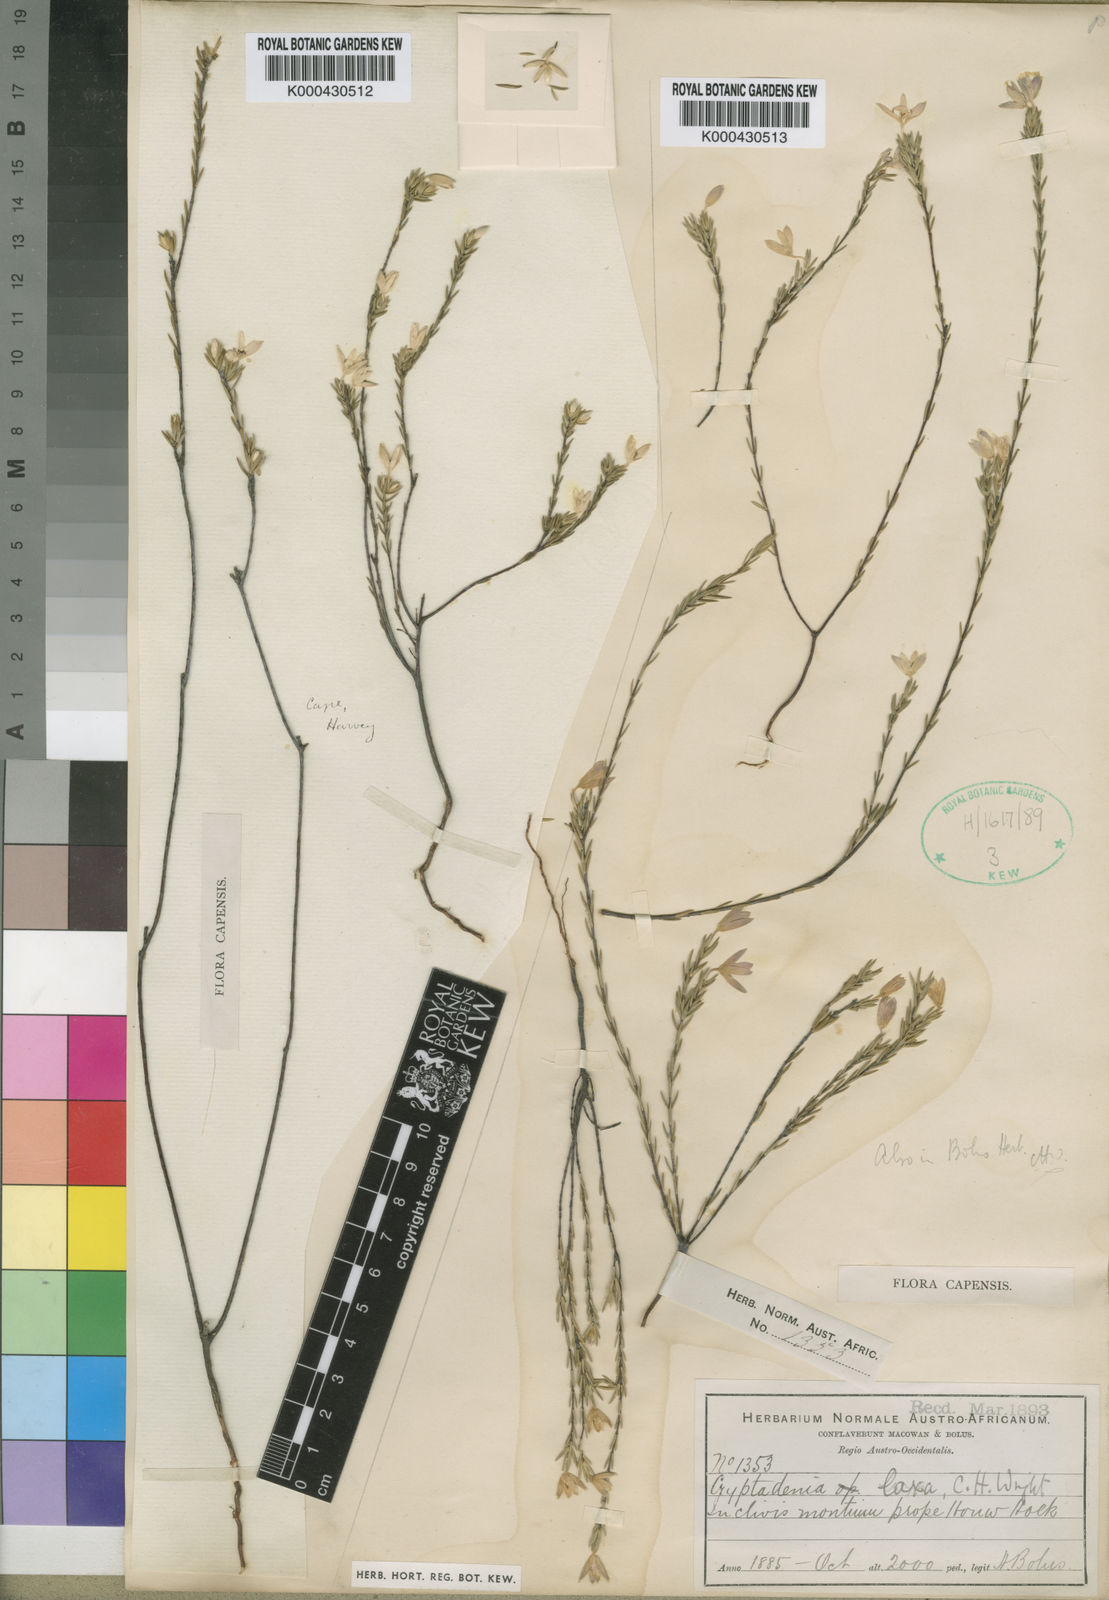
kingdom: Plantae
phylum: Tracheophyta
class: Magnoliopsida
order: Malvales
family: Thymelaeaceae
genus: Lachnaea
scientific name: Lachnaea laxa
